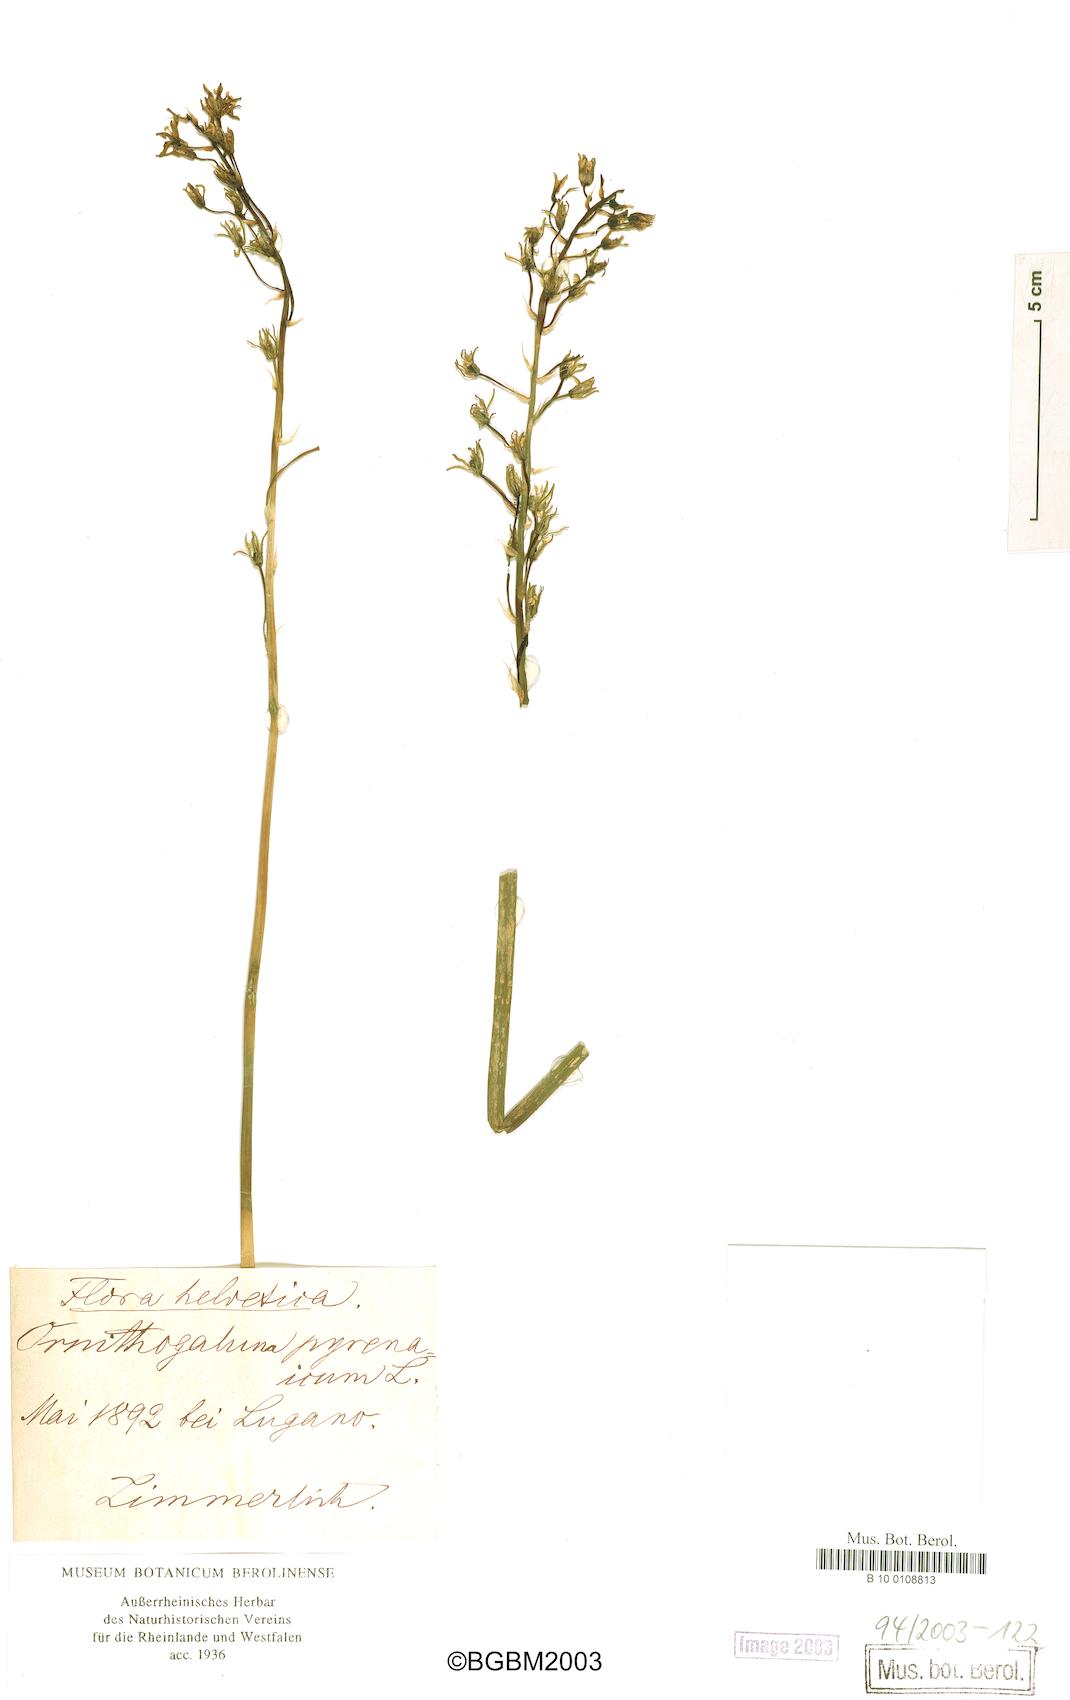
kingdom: Plantae
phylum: Tracheophyta
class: Liliopsida
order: Asparagales
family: Asparagaceae
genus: Ornithogalum
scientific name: Ornithogalum pyrenaicum
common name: Spiked star-of-bethlehem
